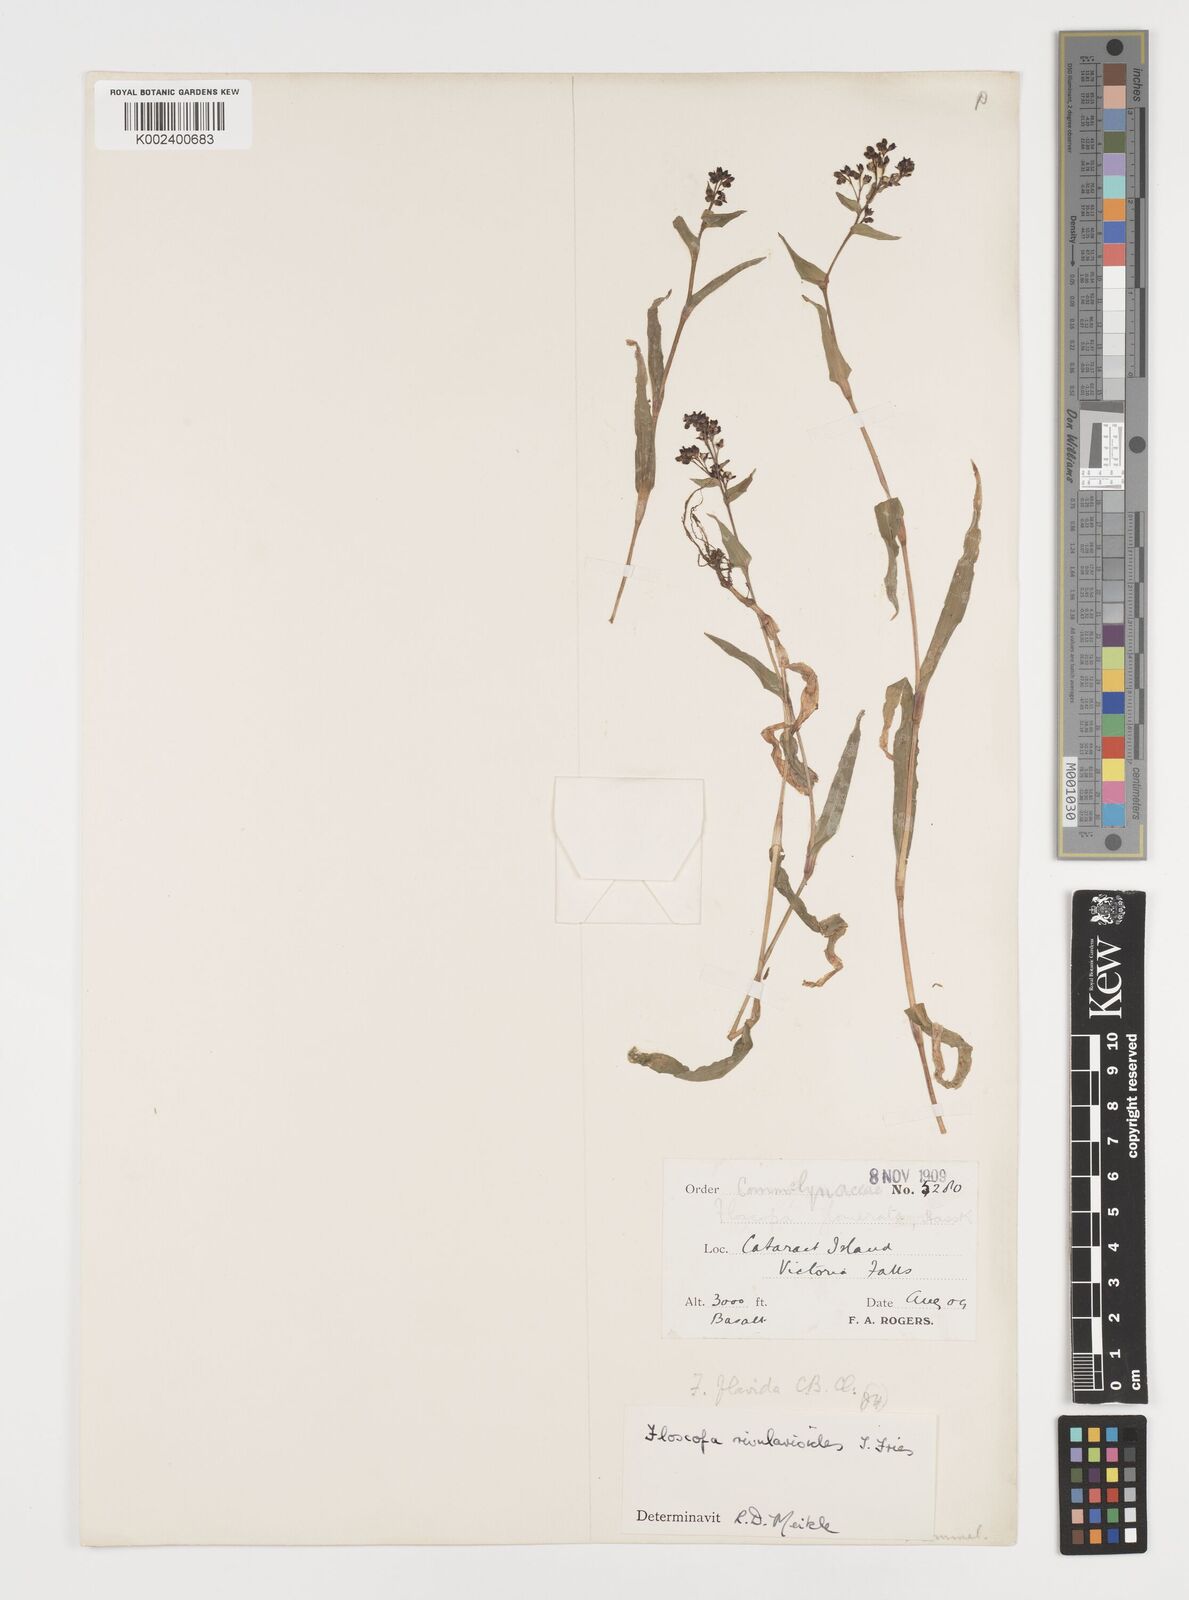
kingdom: Plantae
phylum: Tracheophyta
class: Liliopsida
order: Commelinales
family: Commelinaceae
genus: Floscopa
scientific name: Floscopa rivularioides
